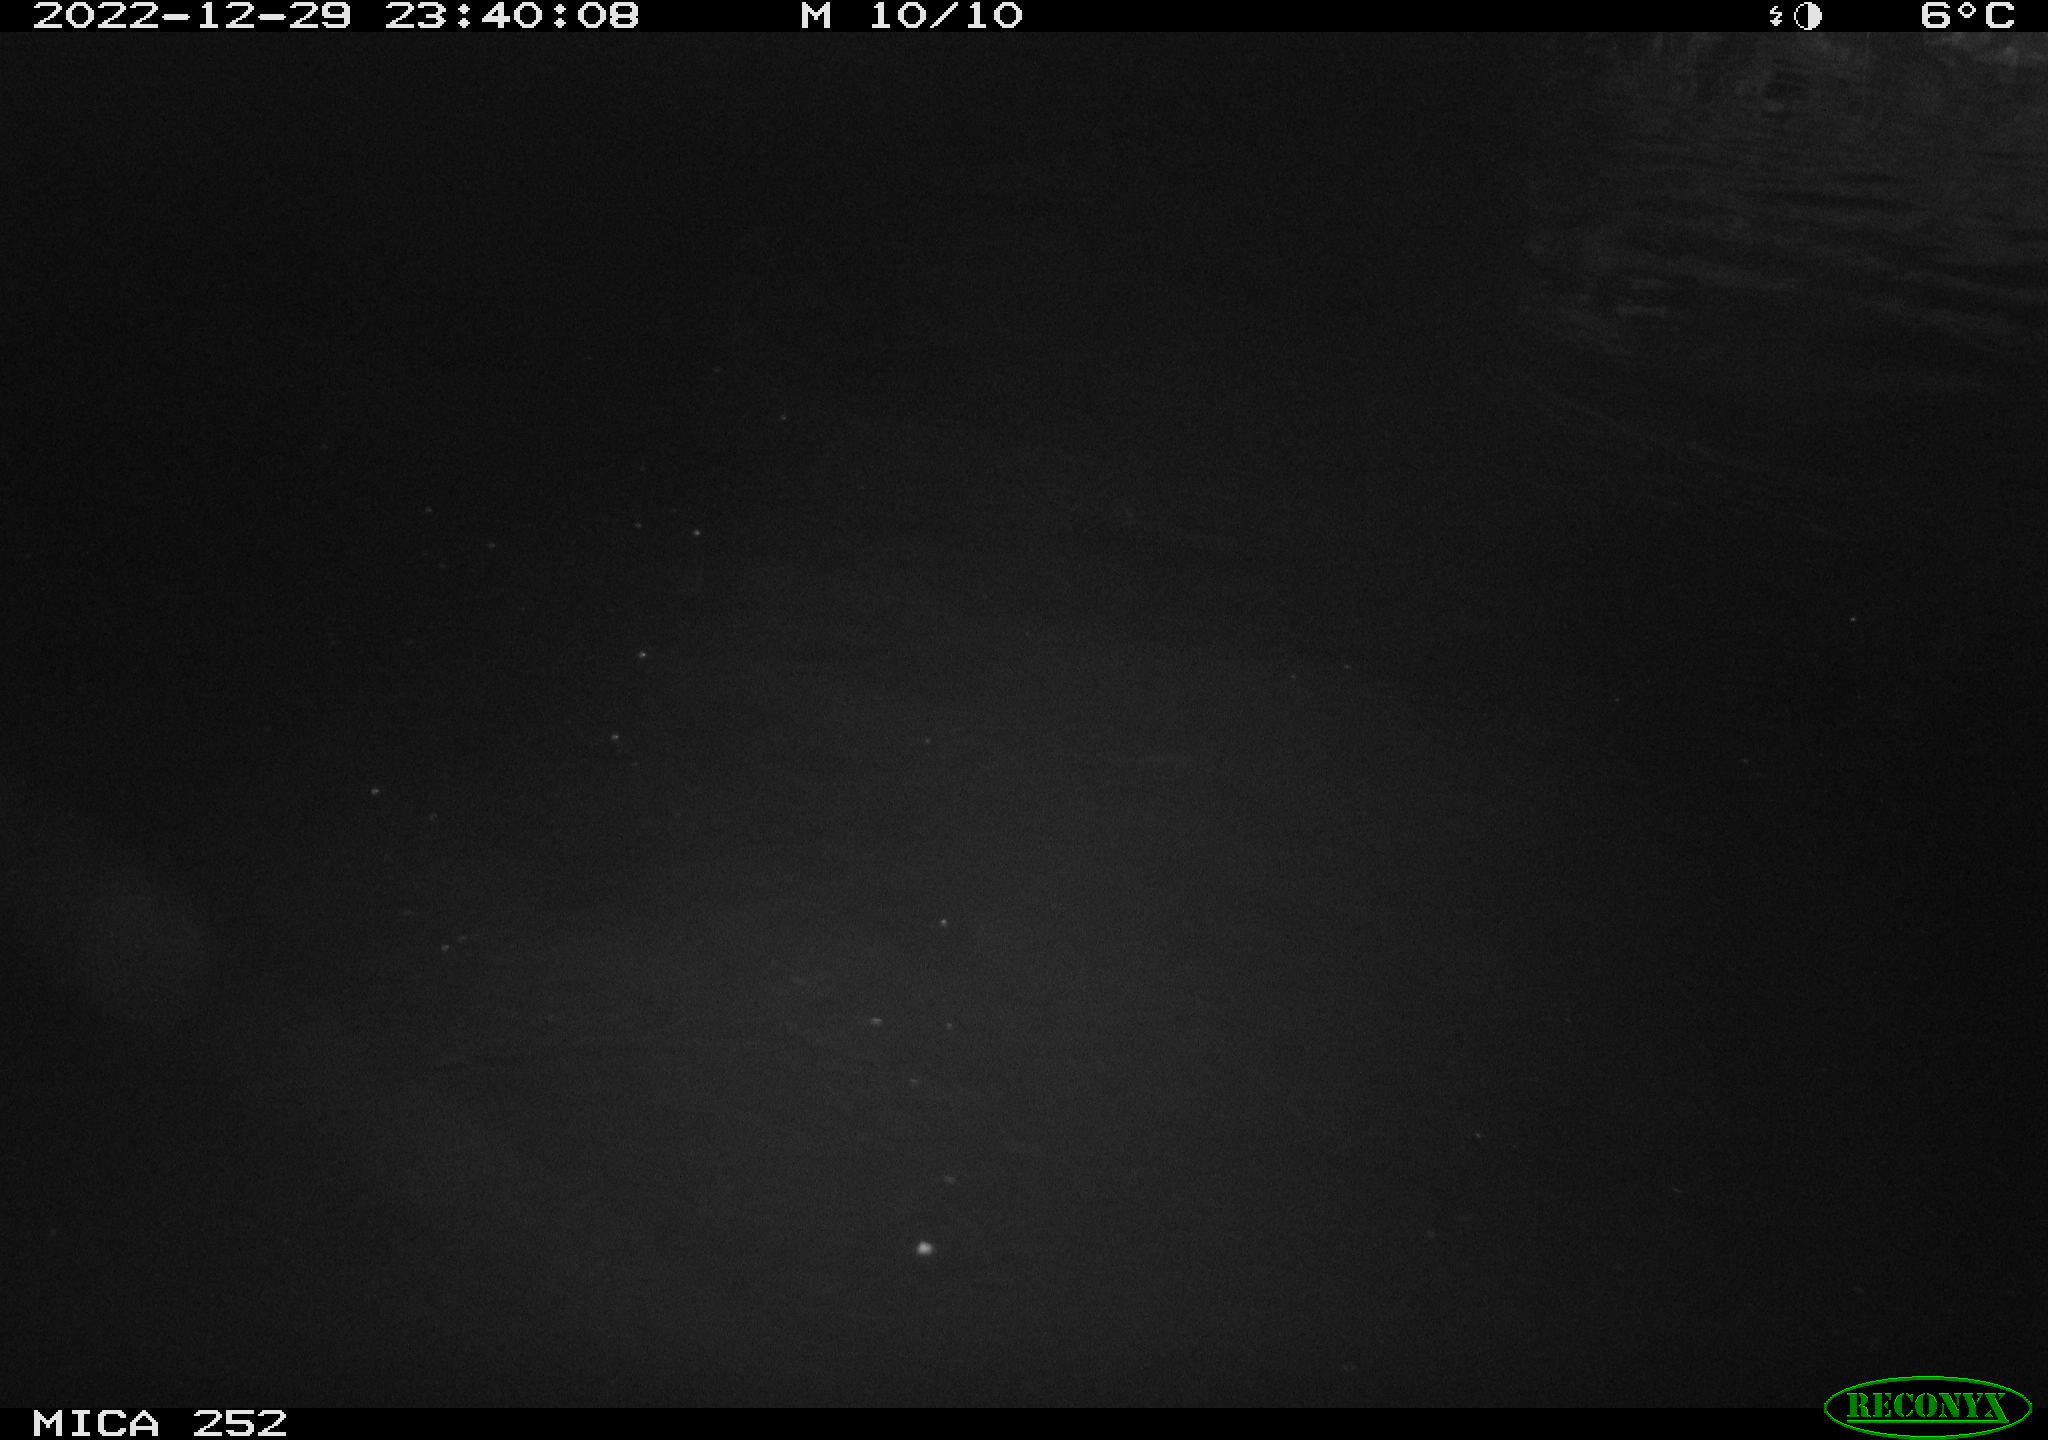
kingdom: Animalia
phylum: Chordata
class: Mammalia
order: Rodentia
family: Castoridae
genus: Castor
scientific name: Castor fiber
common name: Eurasian beaver
